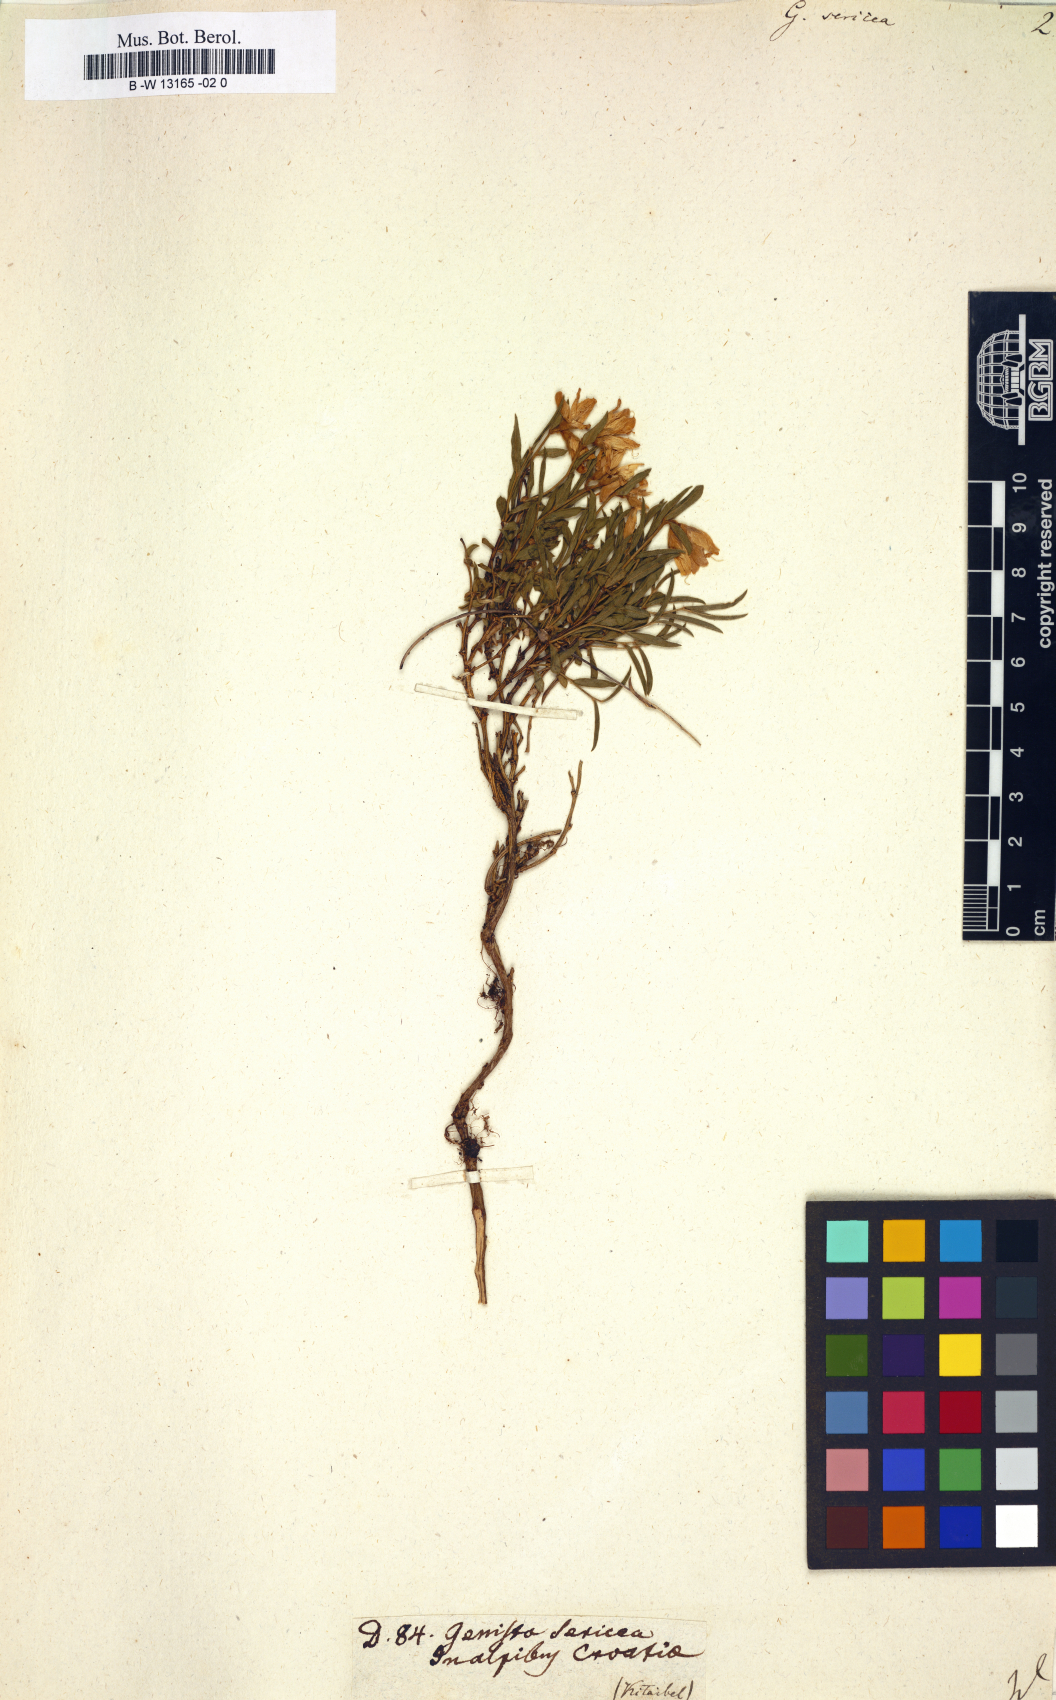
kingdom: Plantae
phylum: Tracheophyta
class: Magnoliopsida
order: Fabales
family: Fabaceae
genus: Genista
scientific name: Genista sericea
